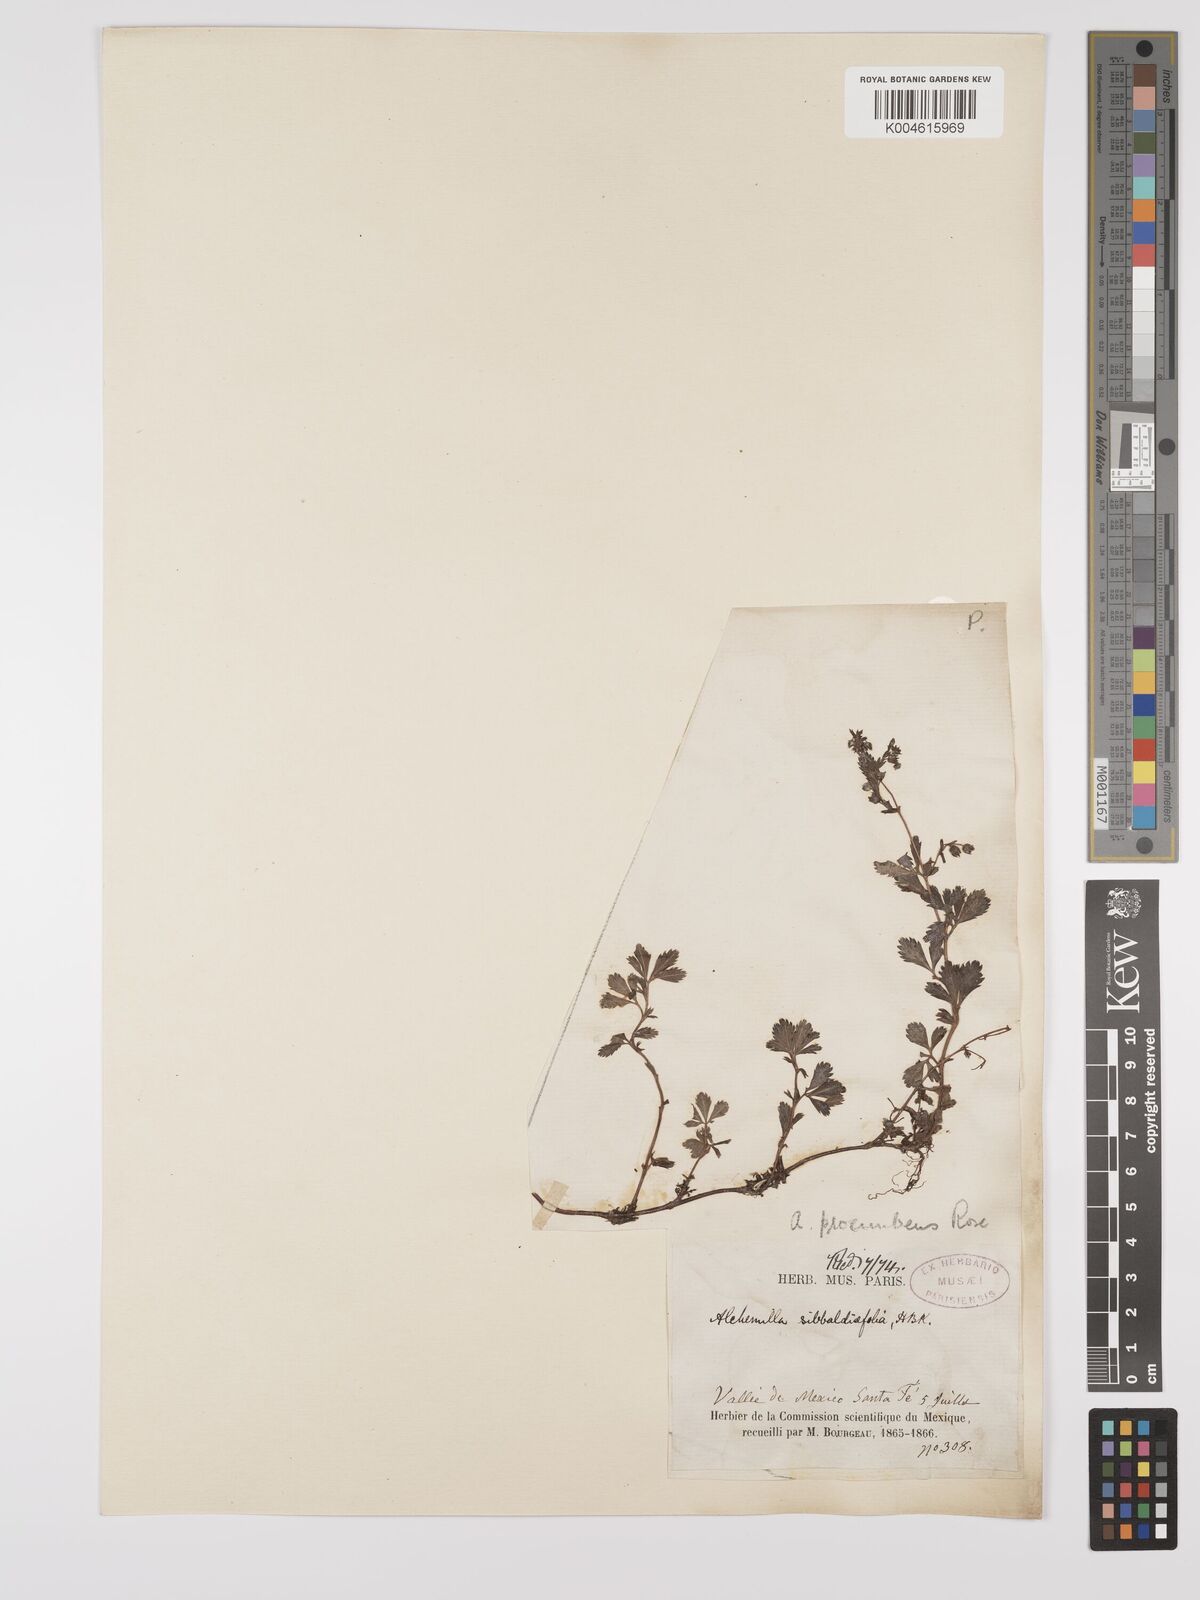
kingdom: Plantae
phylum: Tracheophyta
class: Magnoliopsida
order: Rosales
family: Rosaceae
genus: Lachemilla
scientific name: Lachemilla procumbens
